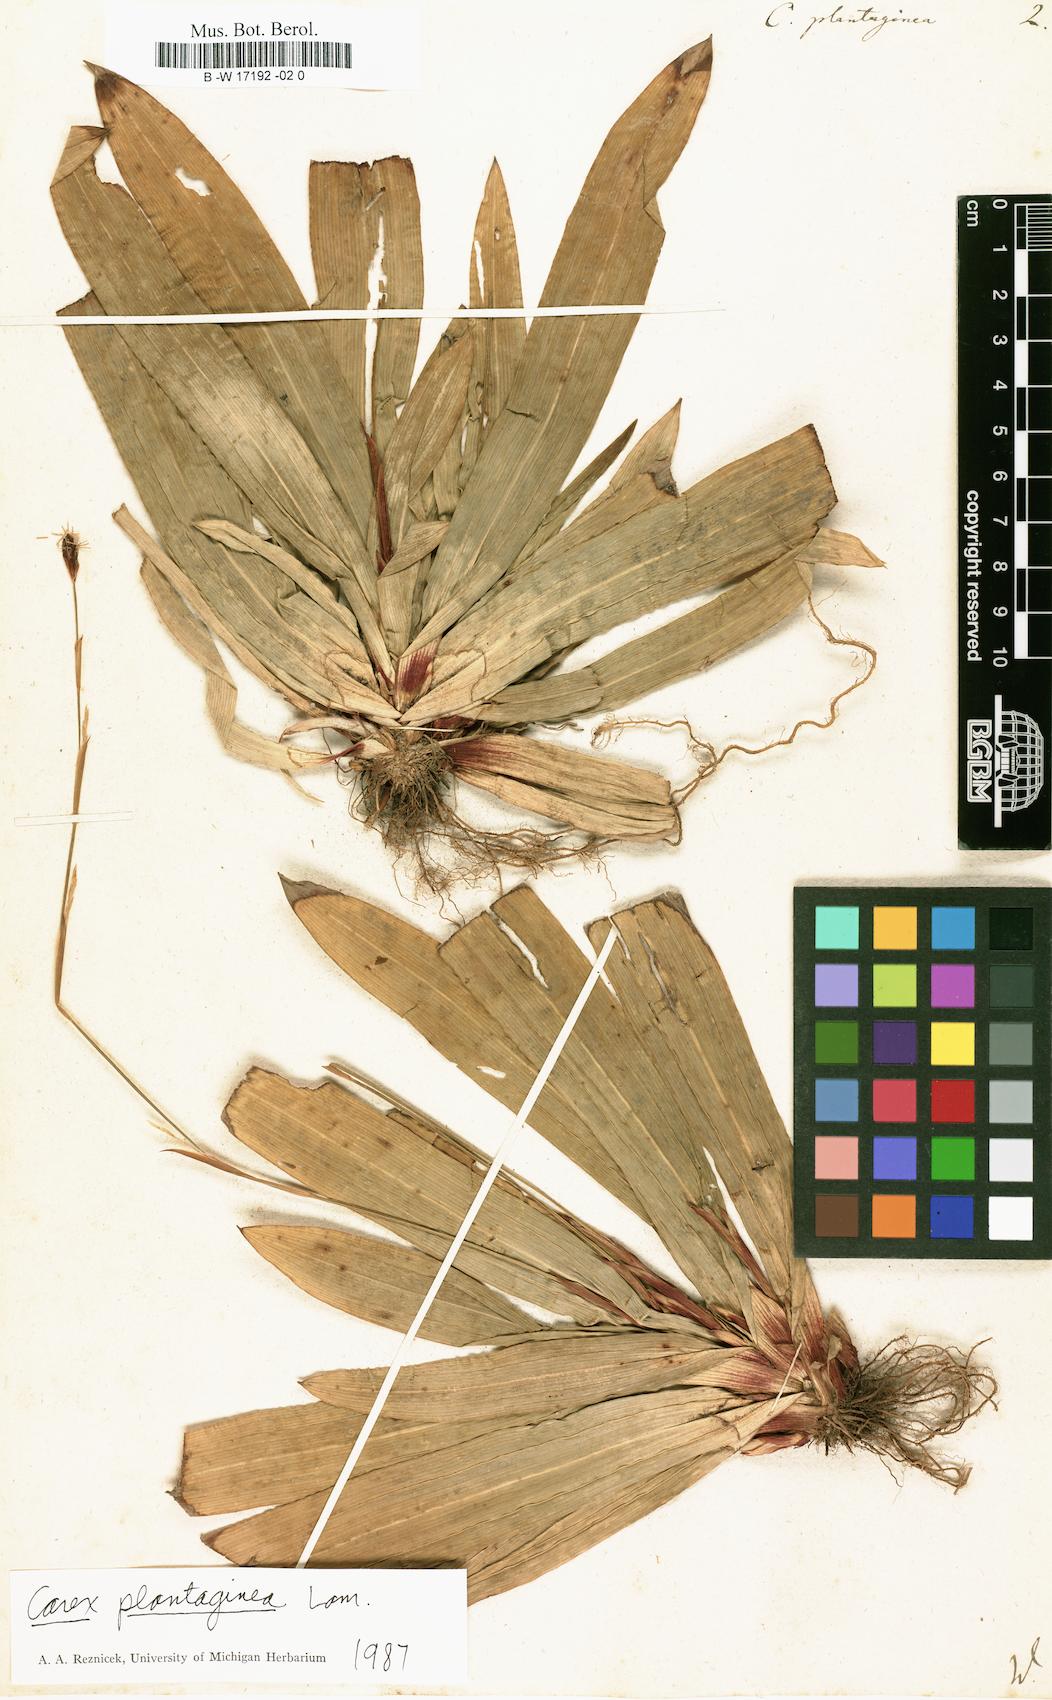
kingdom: Plantae
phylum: Tracheophyta
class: Liliopsida
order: Poales
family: Cyperaceae
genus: Carex
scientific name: Carex plantaginea
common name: Plantain-leaved sedge
